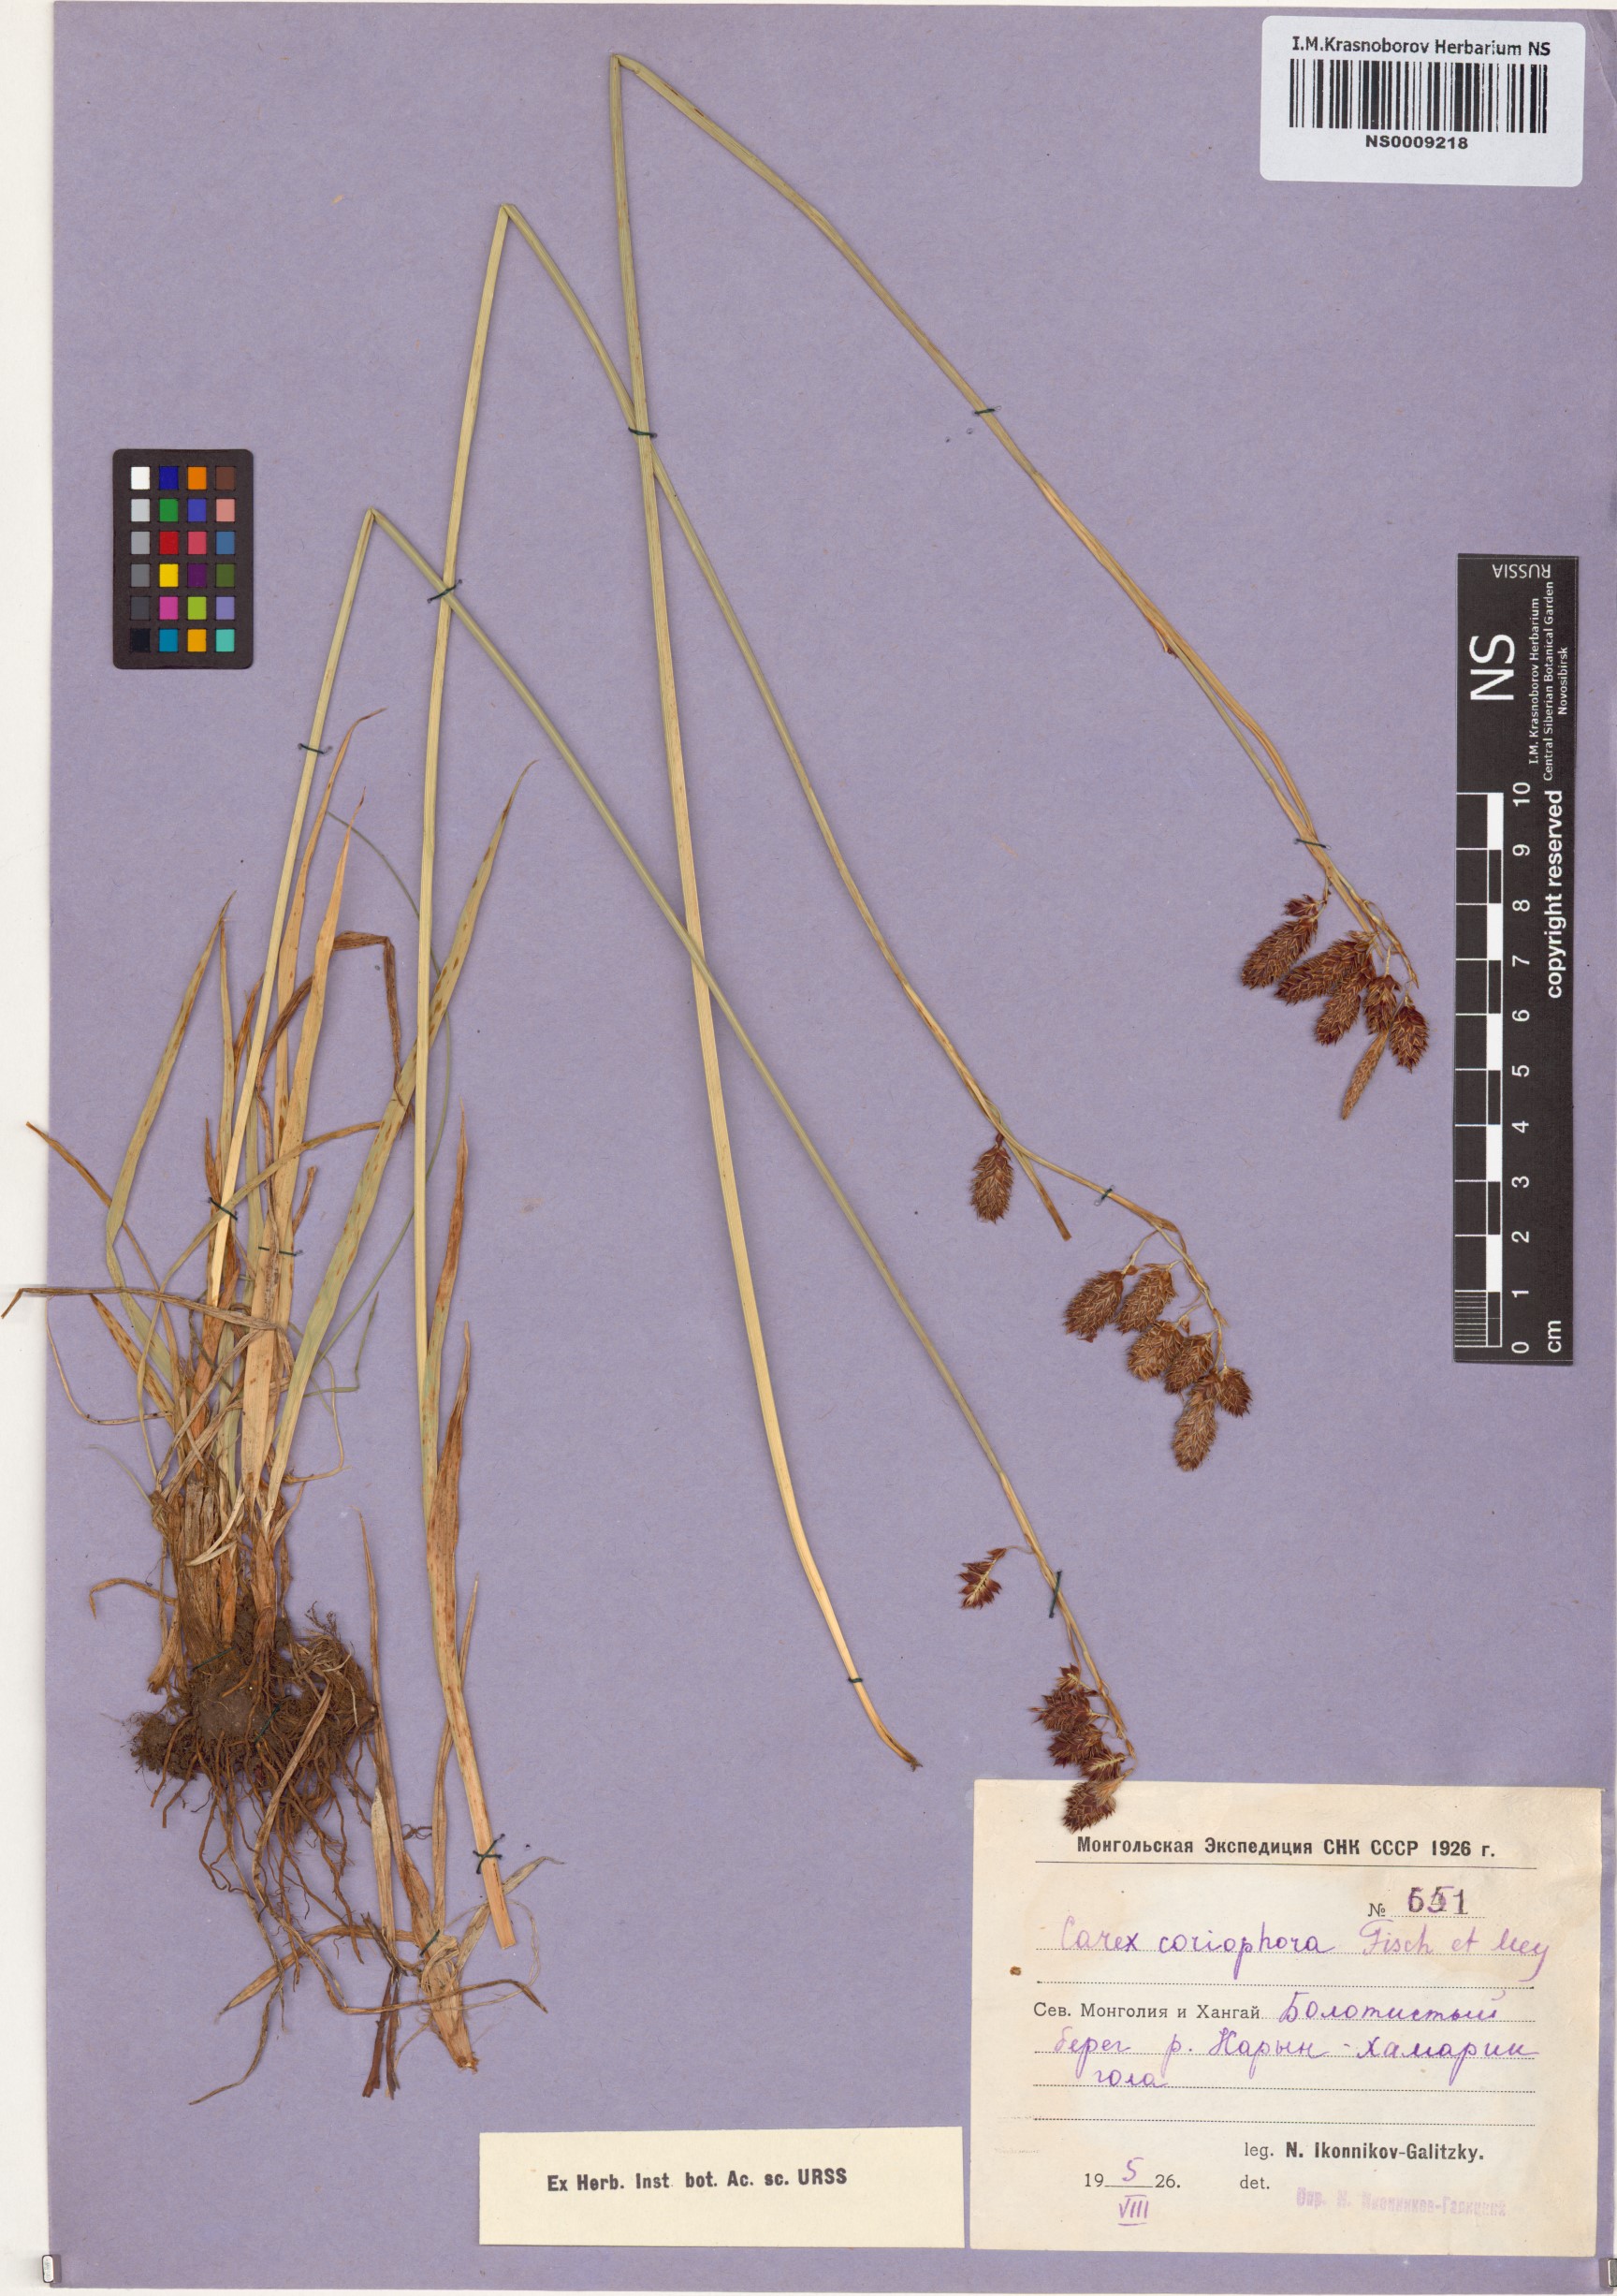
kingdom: Plantae
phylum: Tracheophyta
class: Liliopsida
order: Poales
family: Cyperaceae
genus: Carex
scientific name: Carex coriophora
